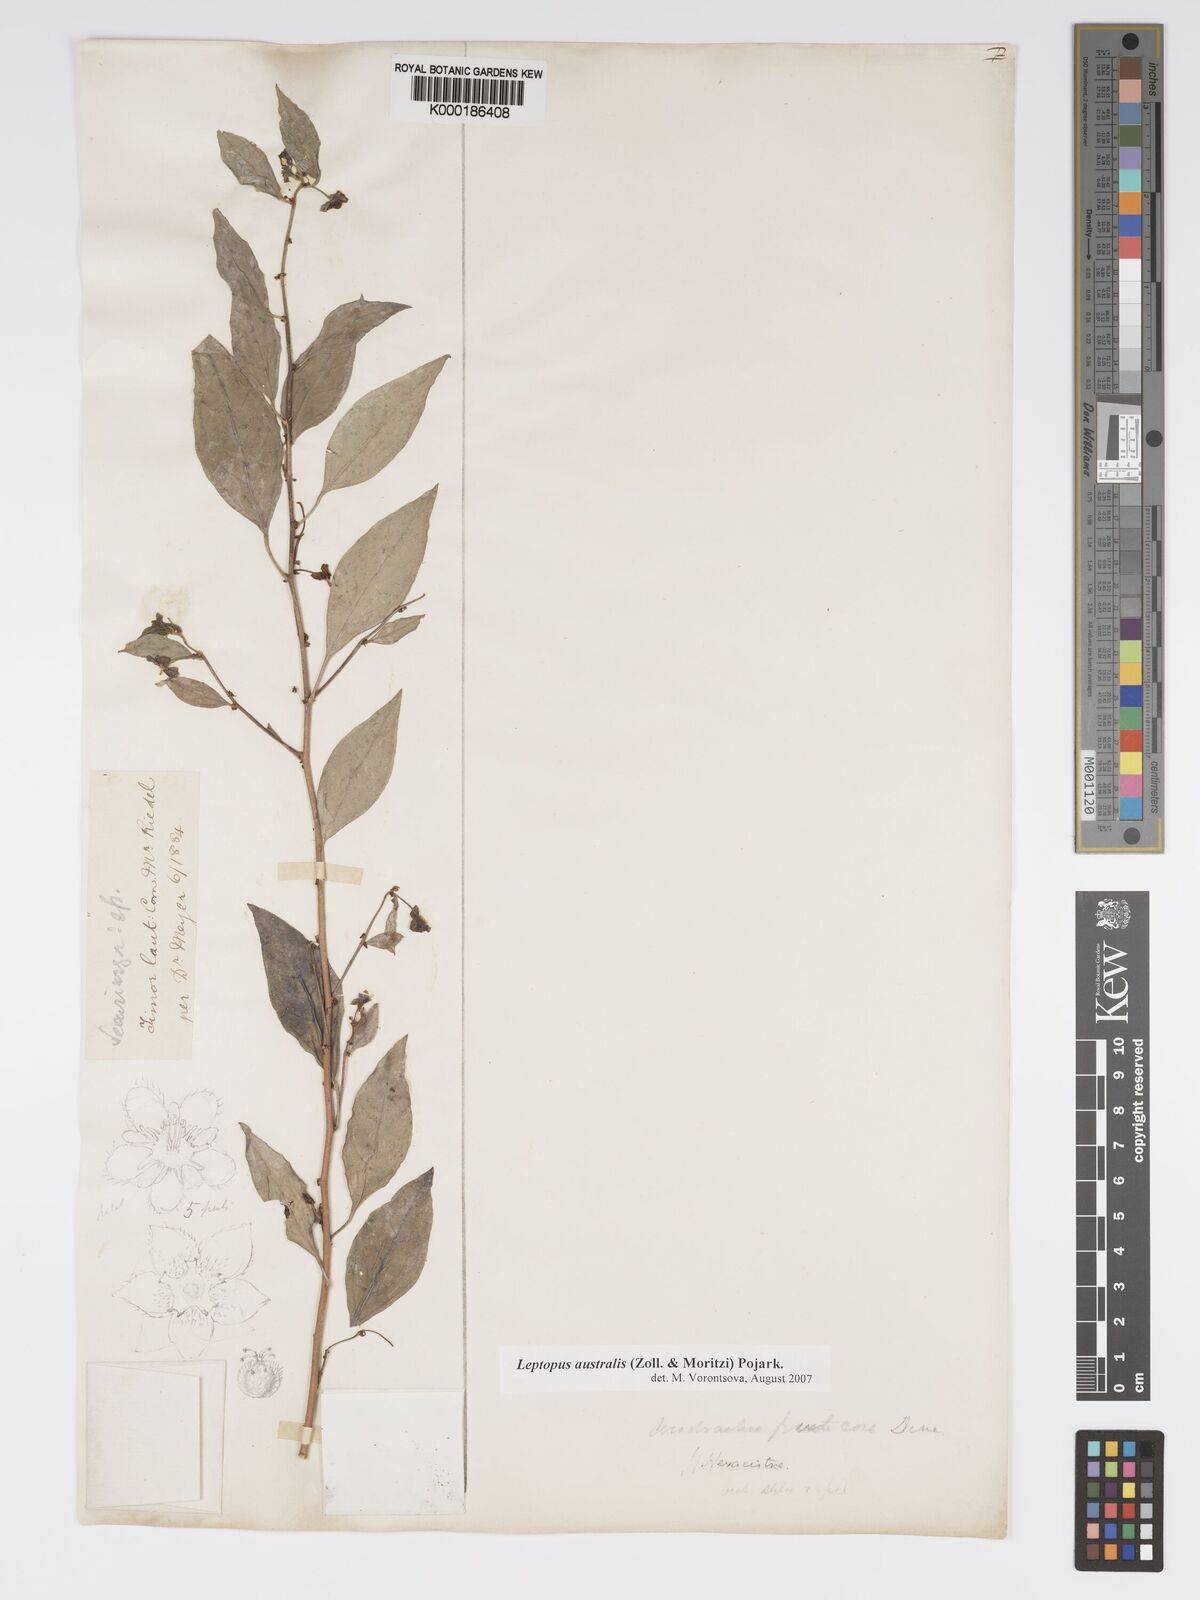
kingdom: Plantae
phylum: Tracheophyta
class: Magnoliopsida
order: Malpighiales
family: Phyllanthaceae
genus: Leptopus
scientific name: Leptopus australis
